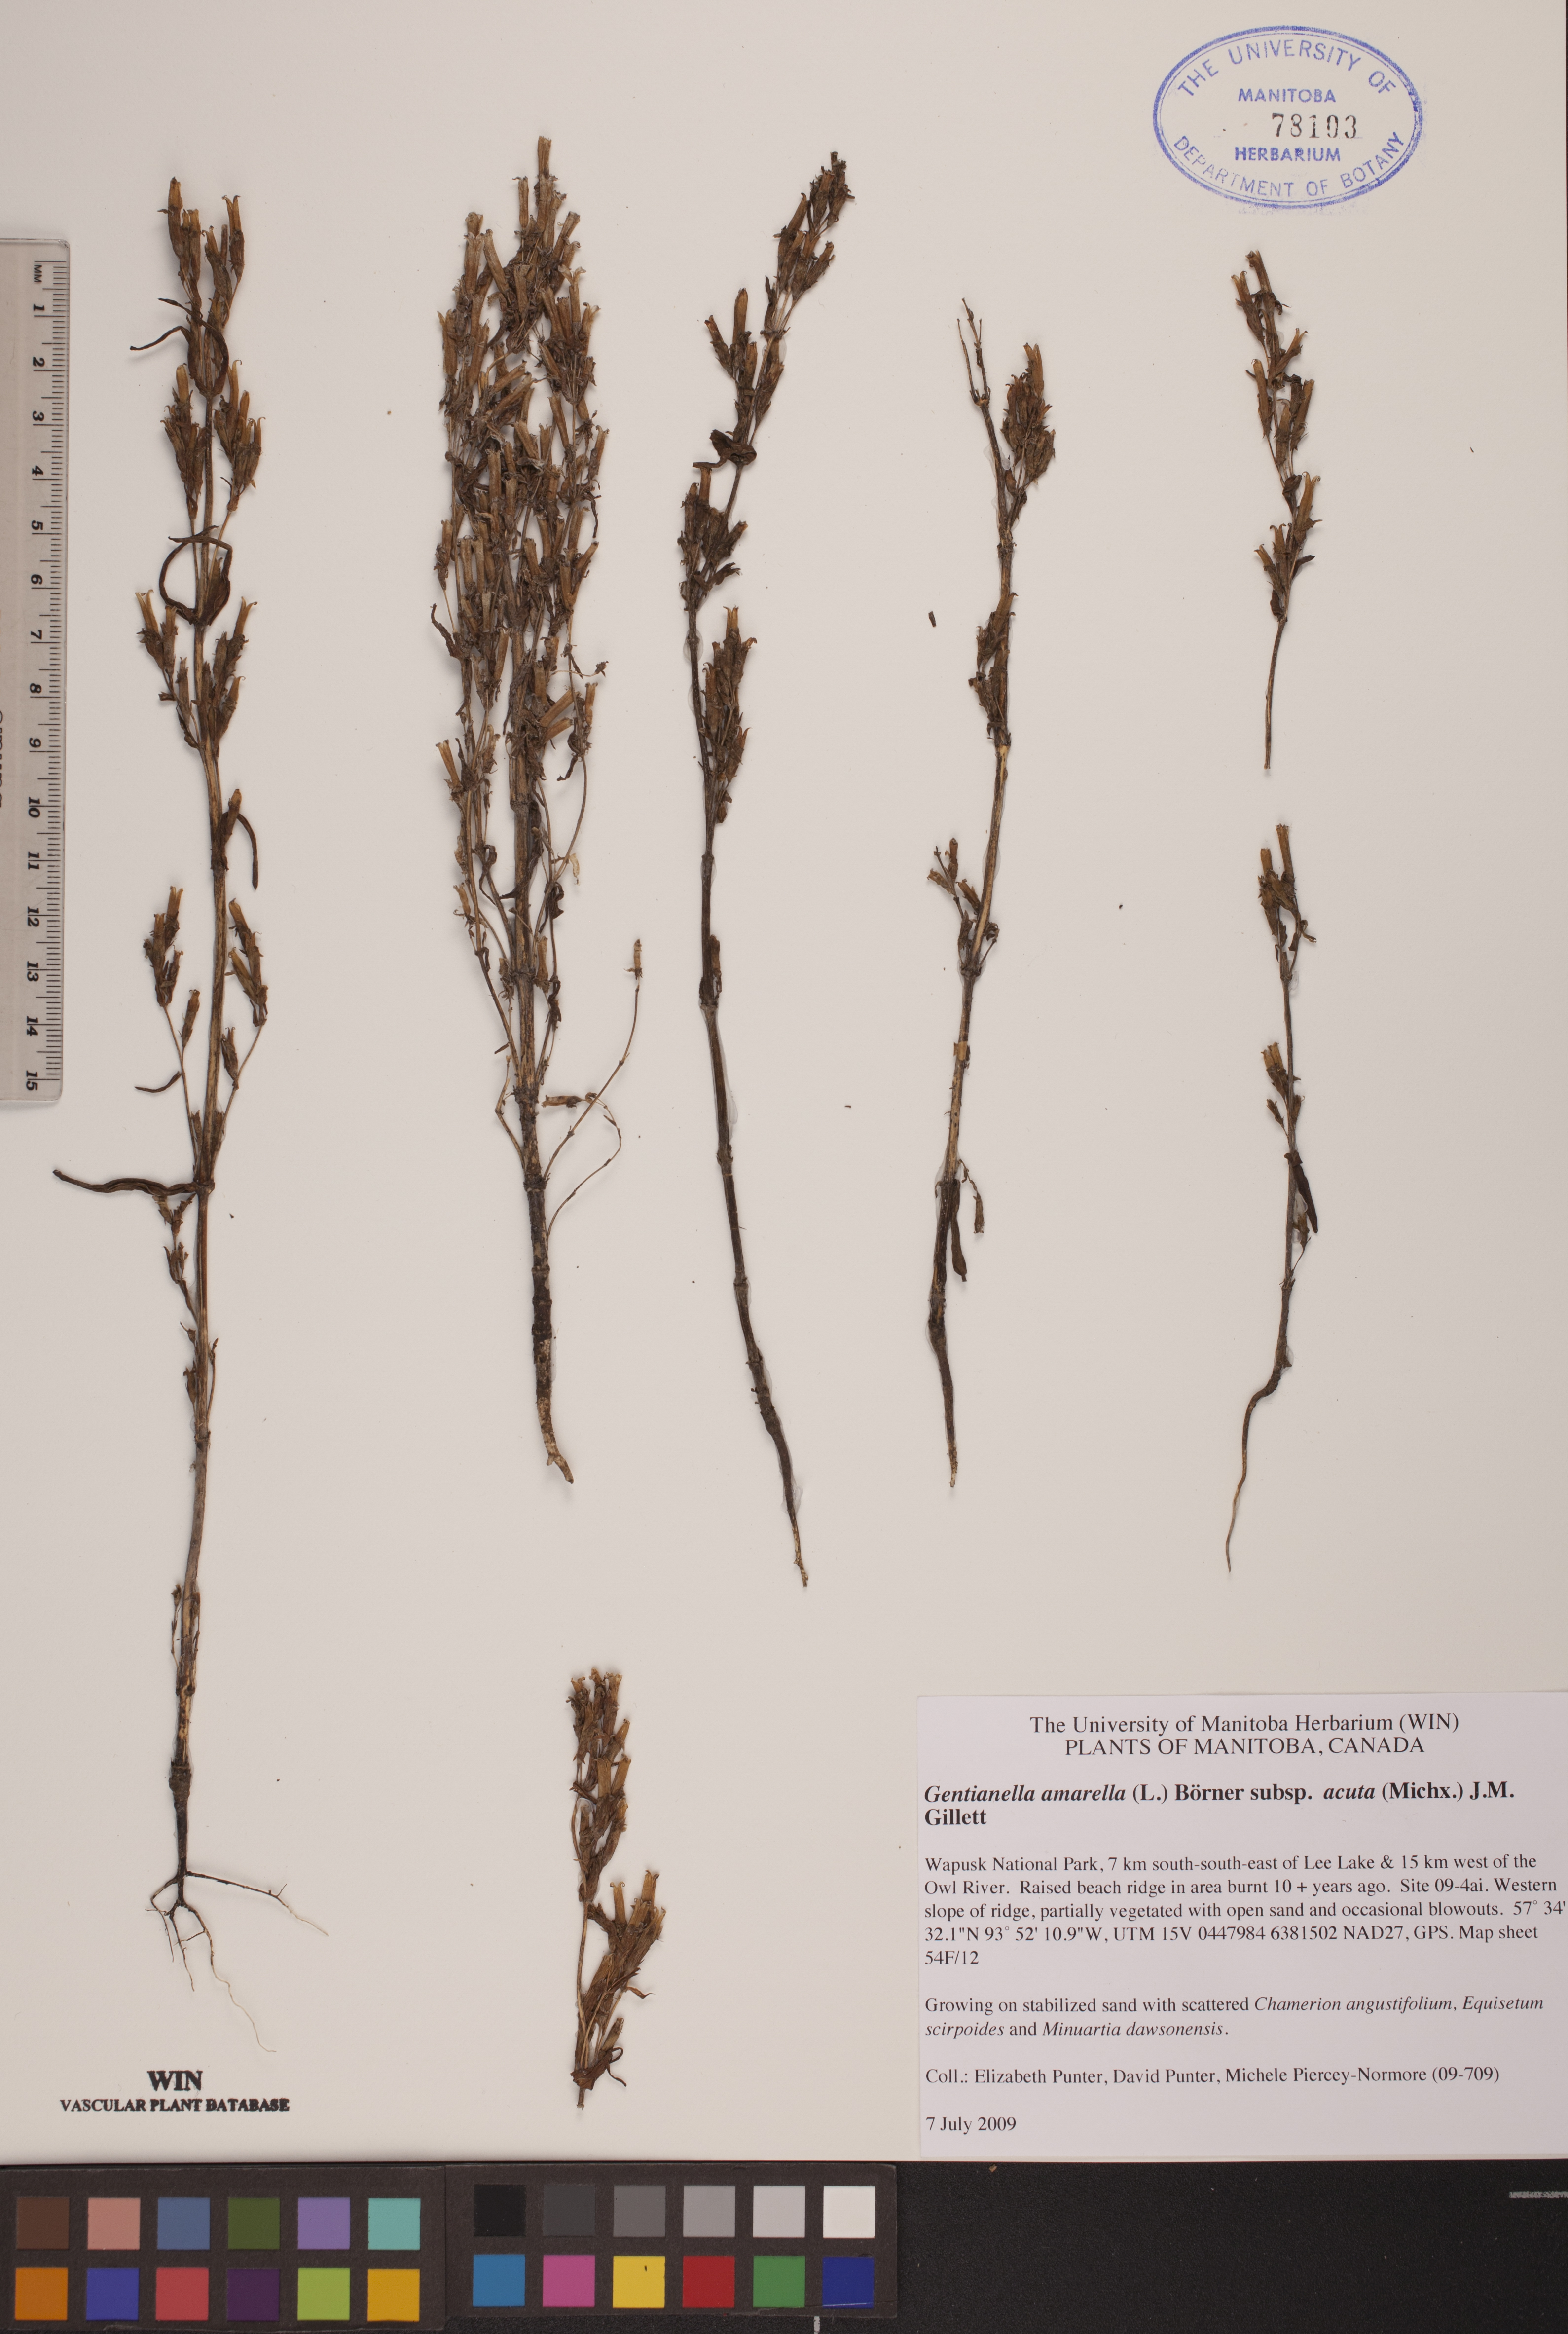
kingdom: Plantae
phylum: Tracheophyta
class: Magnoliopsida
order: Gentianales
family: Gentianaceae
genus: Gentianella
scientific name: Gentianella amarella
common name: Autumn gentian
